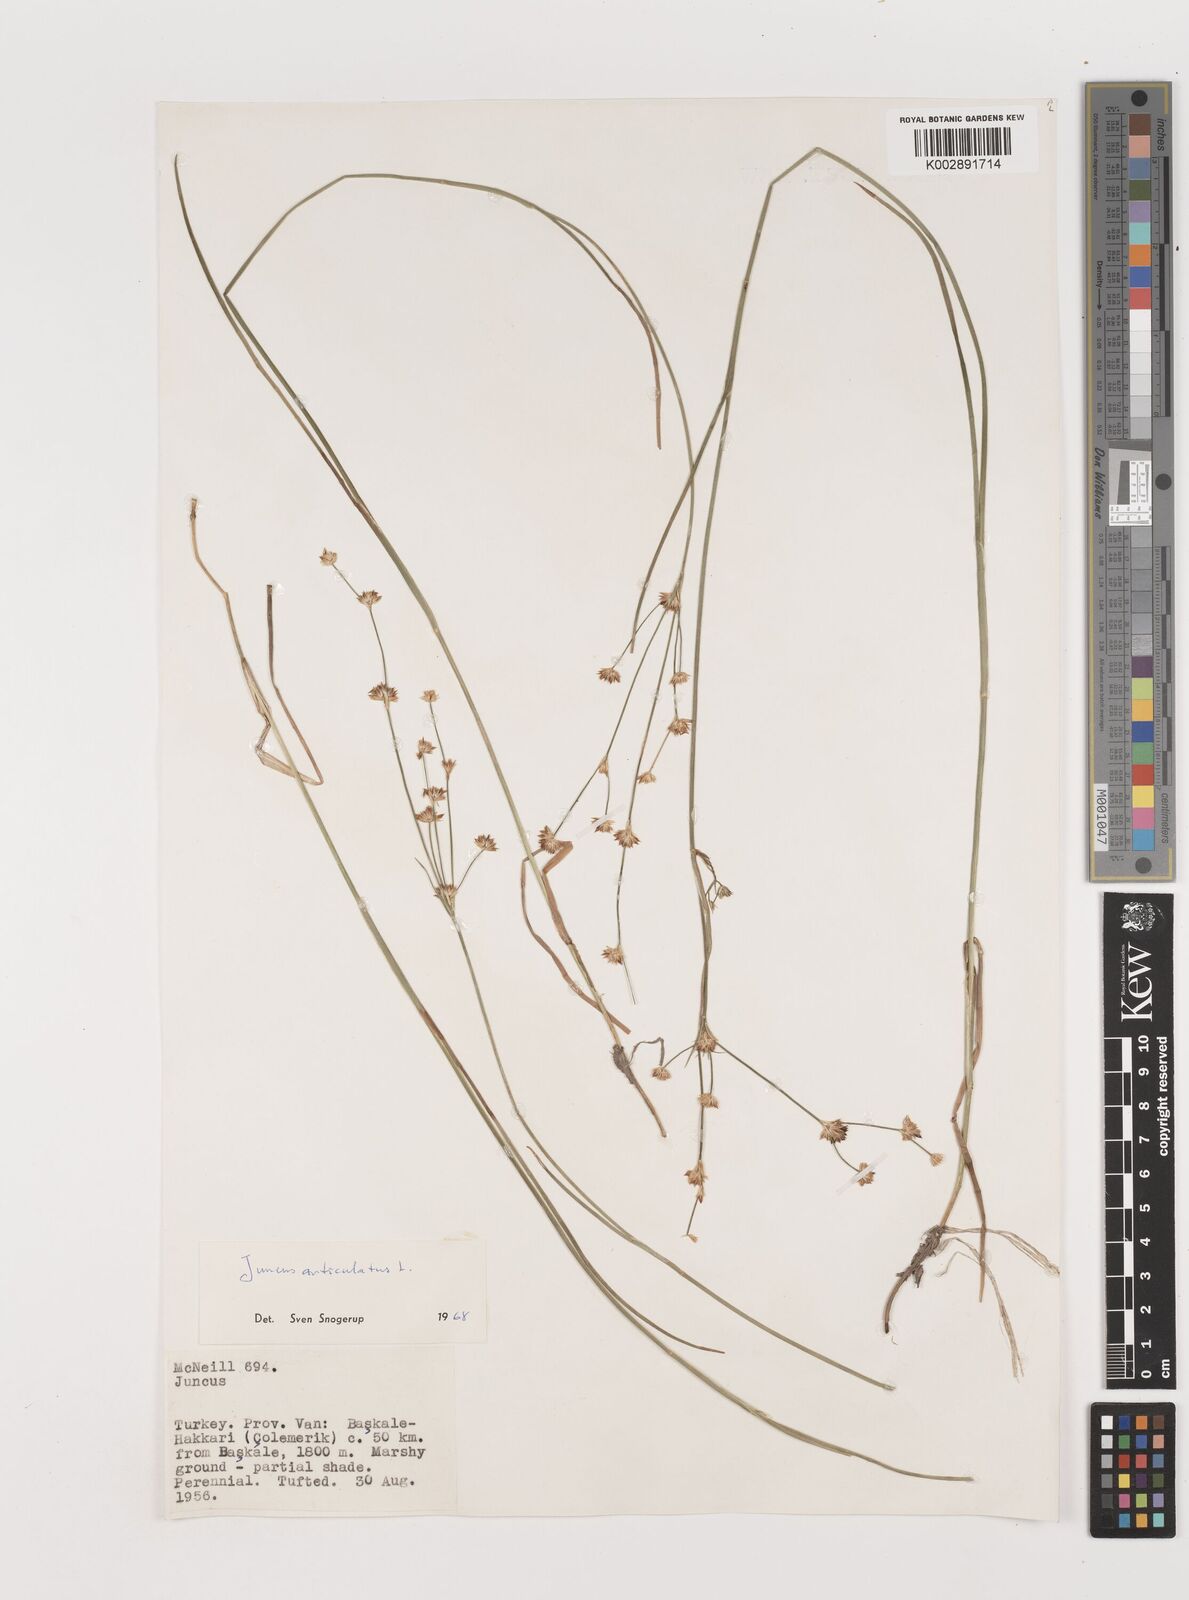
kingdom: Plantae
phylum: Tracheophyta
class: Liliopsida
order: Poales
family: Juncaceae
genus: Juncus
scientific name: Juncus articulatus
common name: Jointed rush
